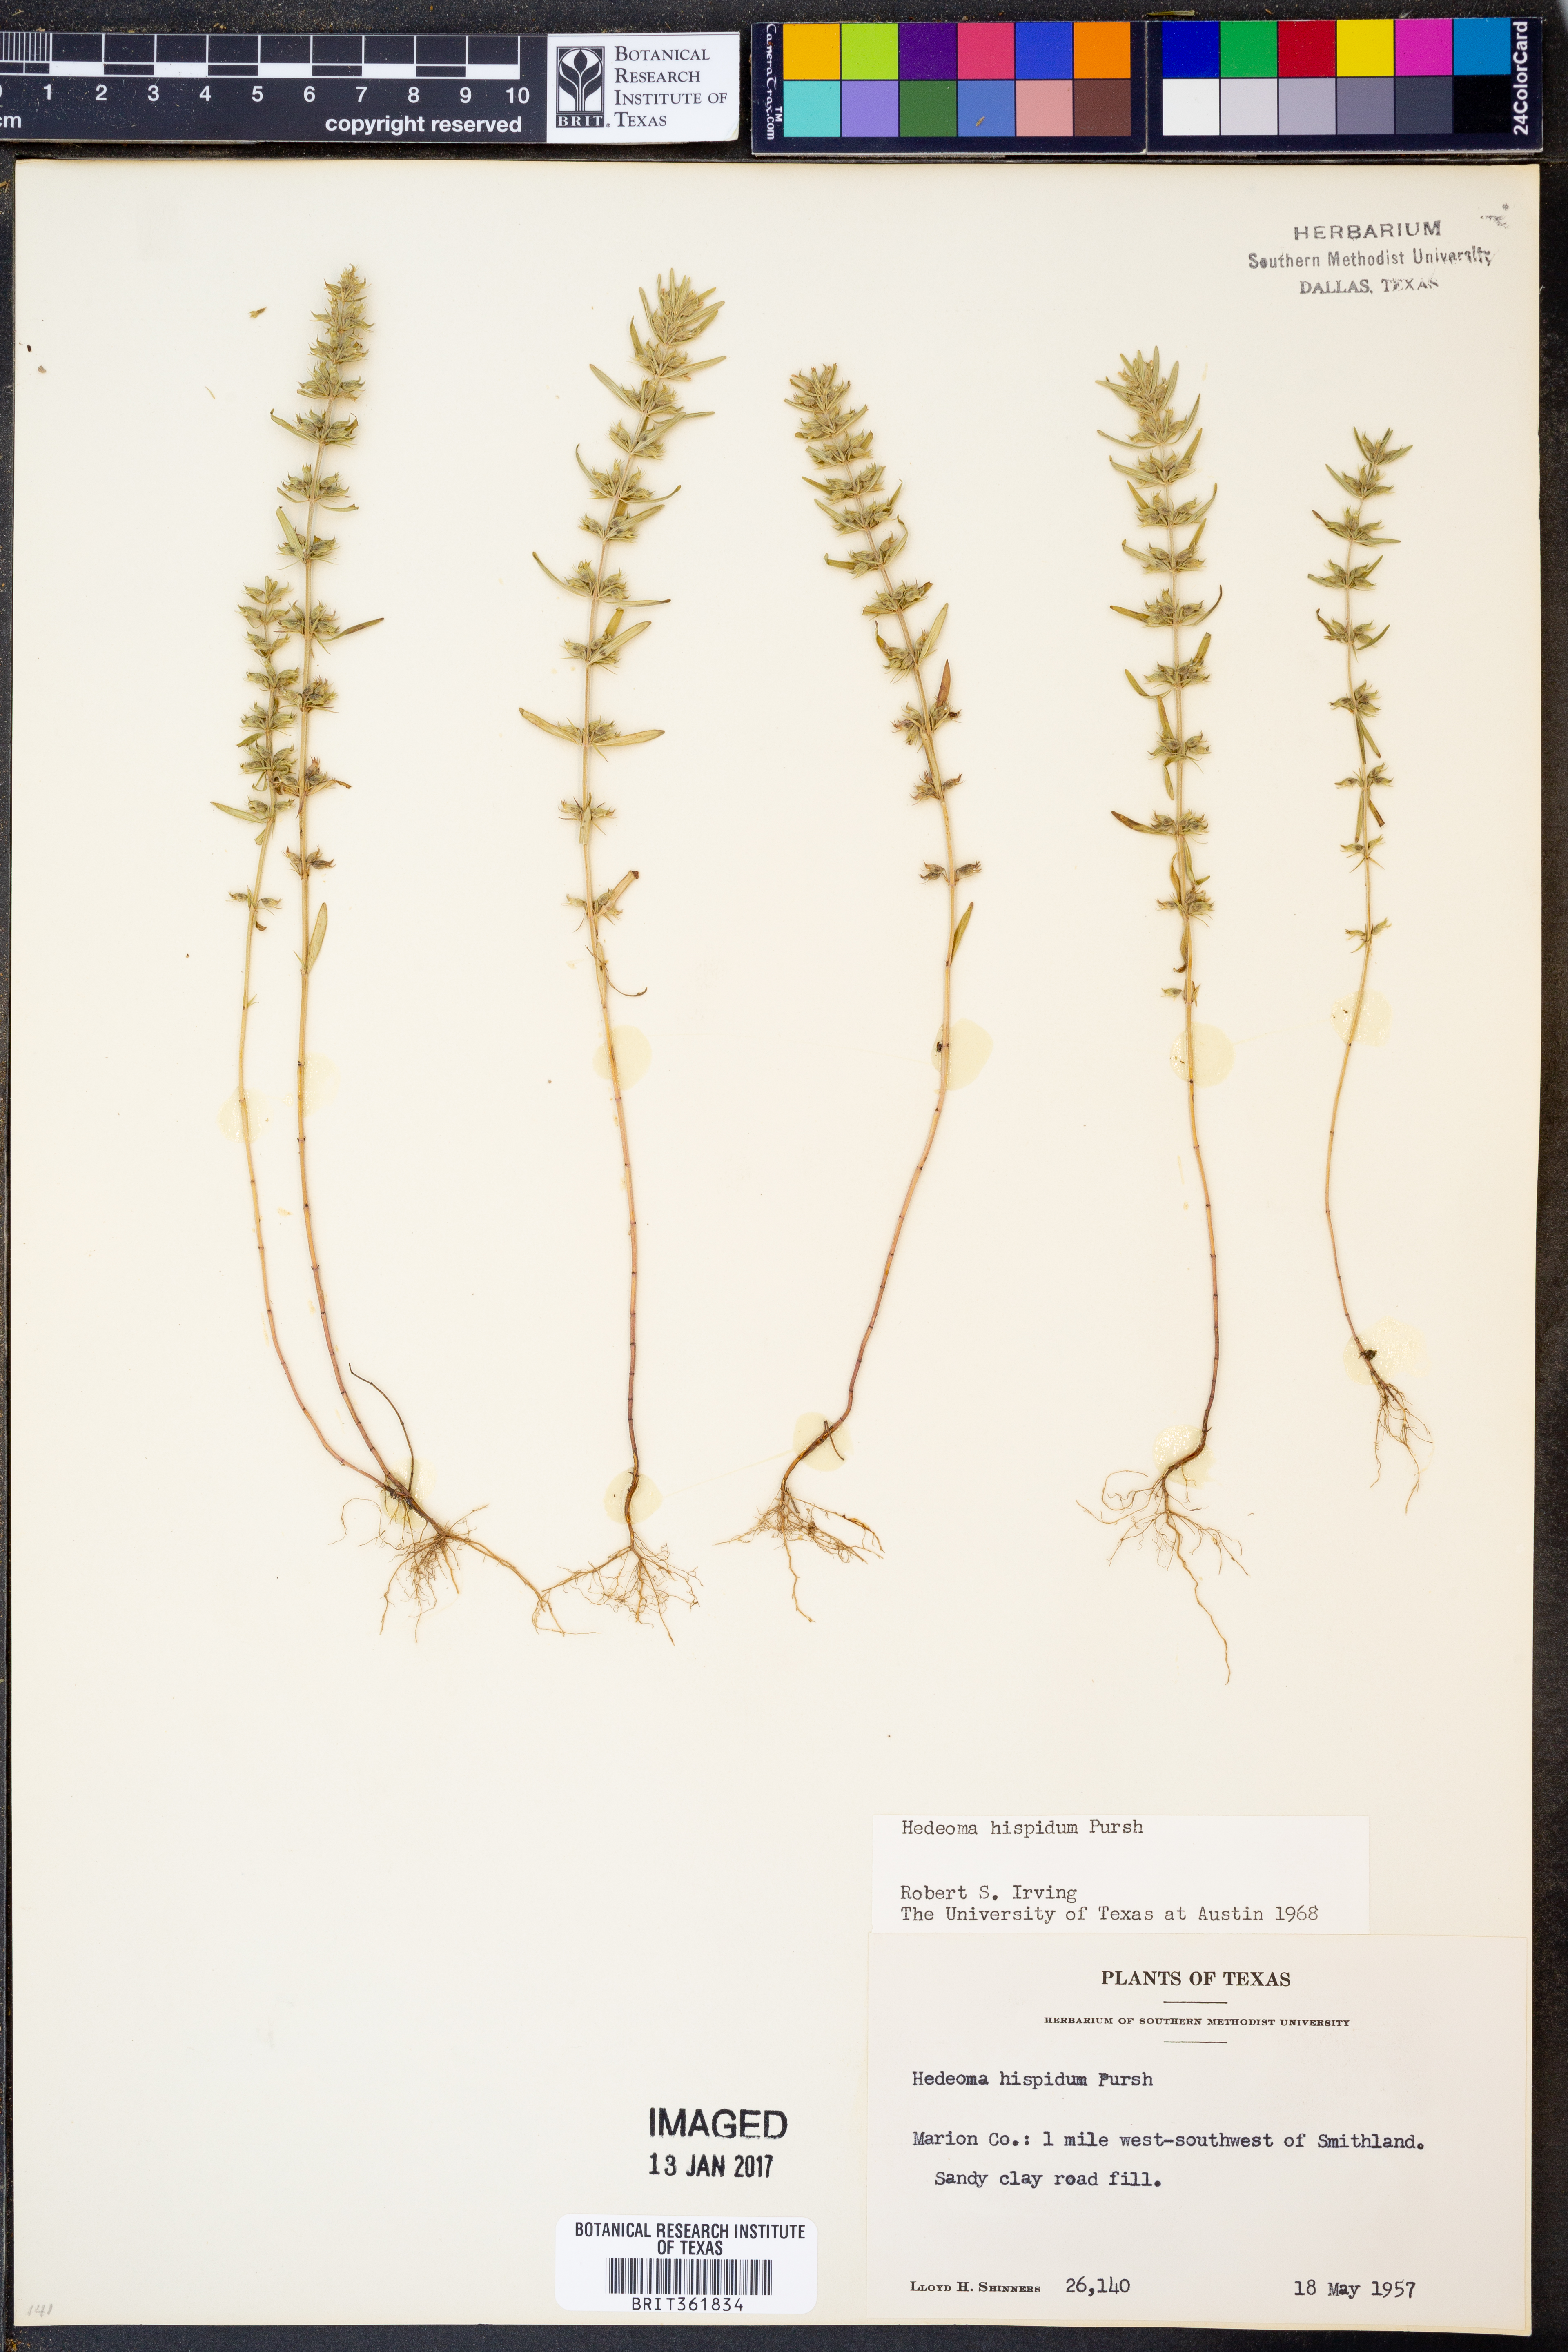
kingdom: Plantae
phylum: Tracheophyta
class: Magnoliopsida
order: Lamiales
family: Lamiaceae
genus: Hedeoma
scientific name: Hedeoma hispida
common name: Mock pennyroyal
